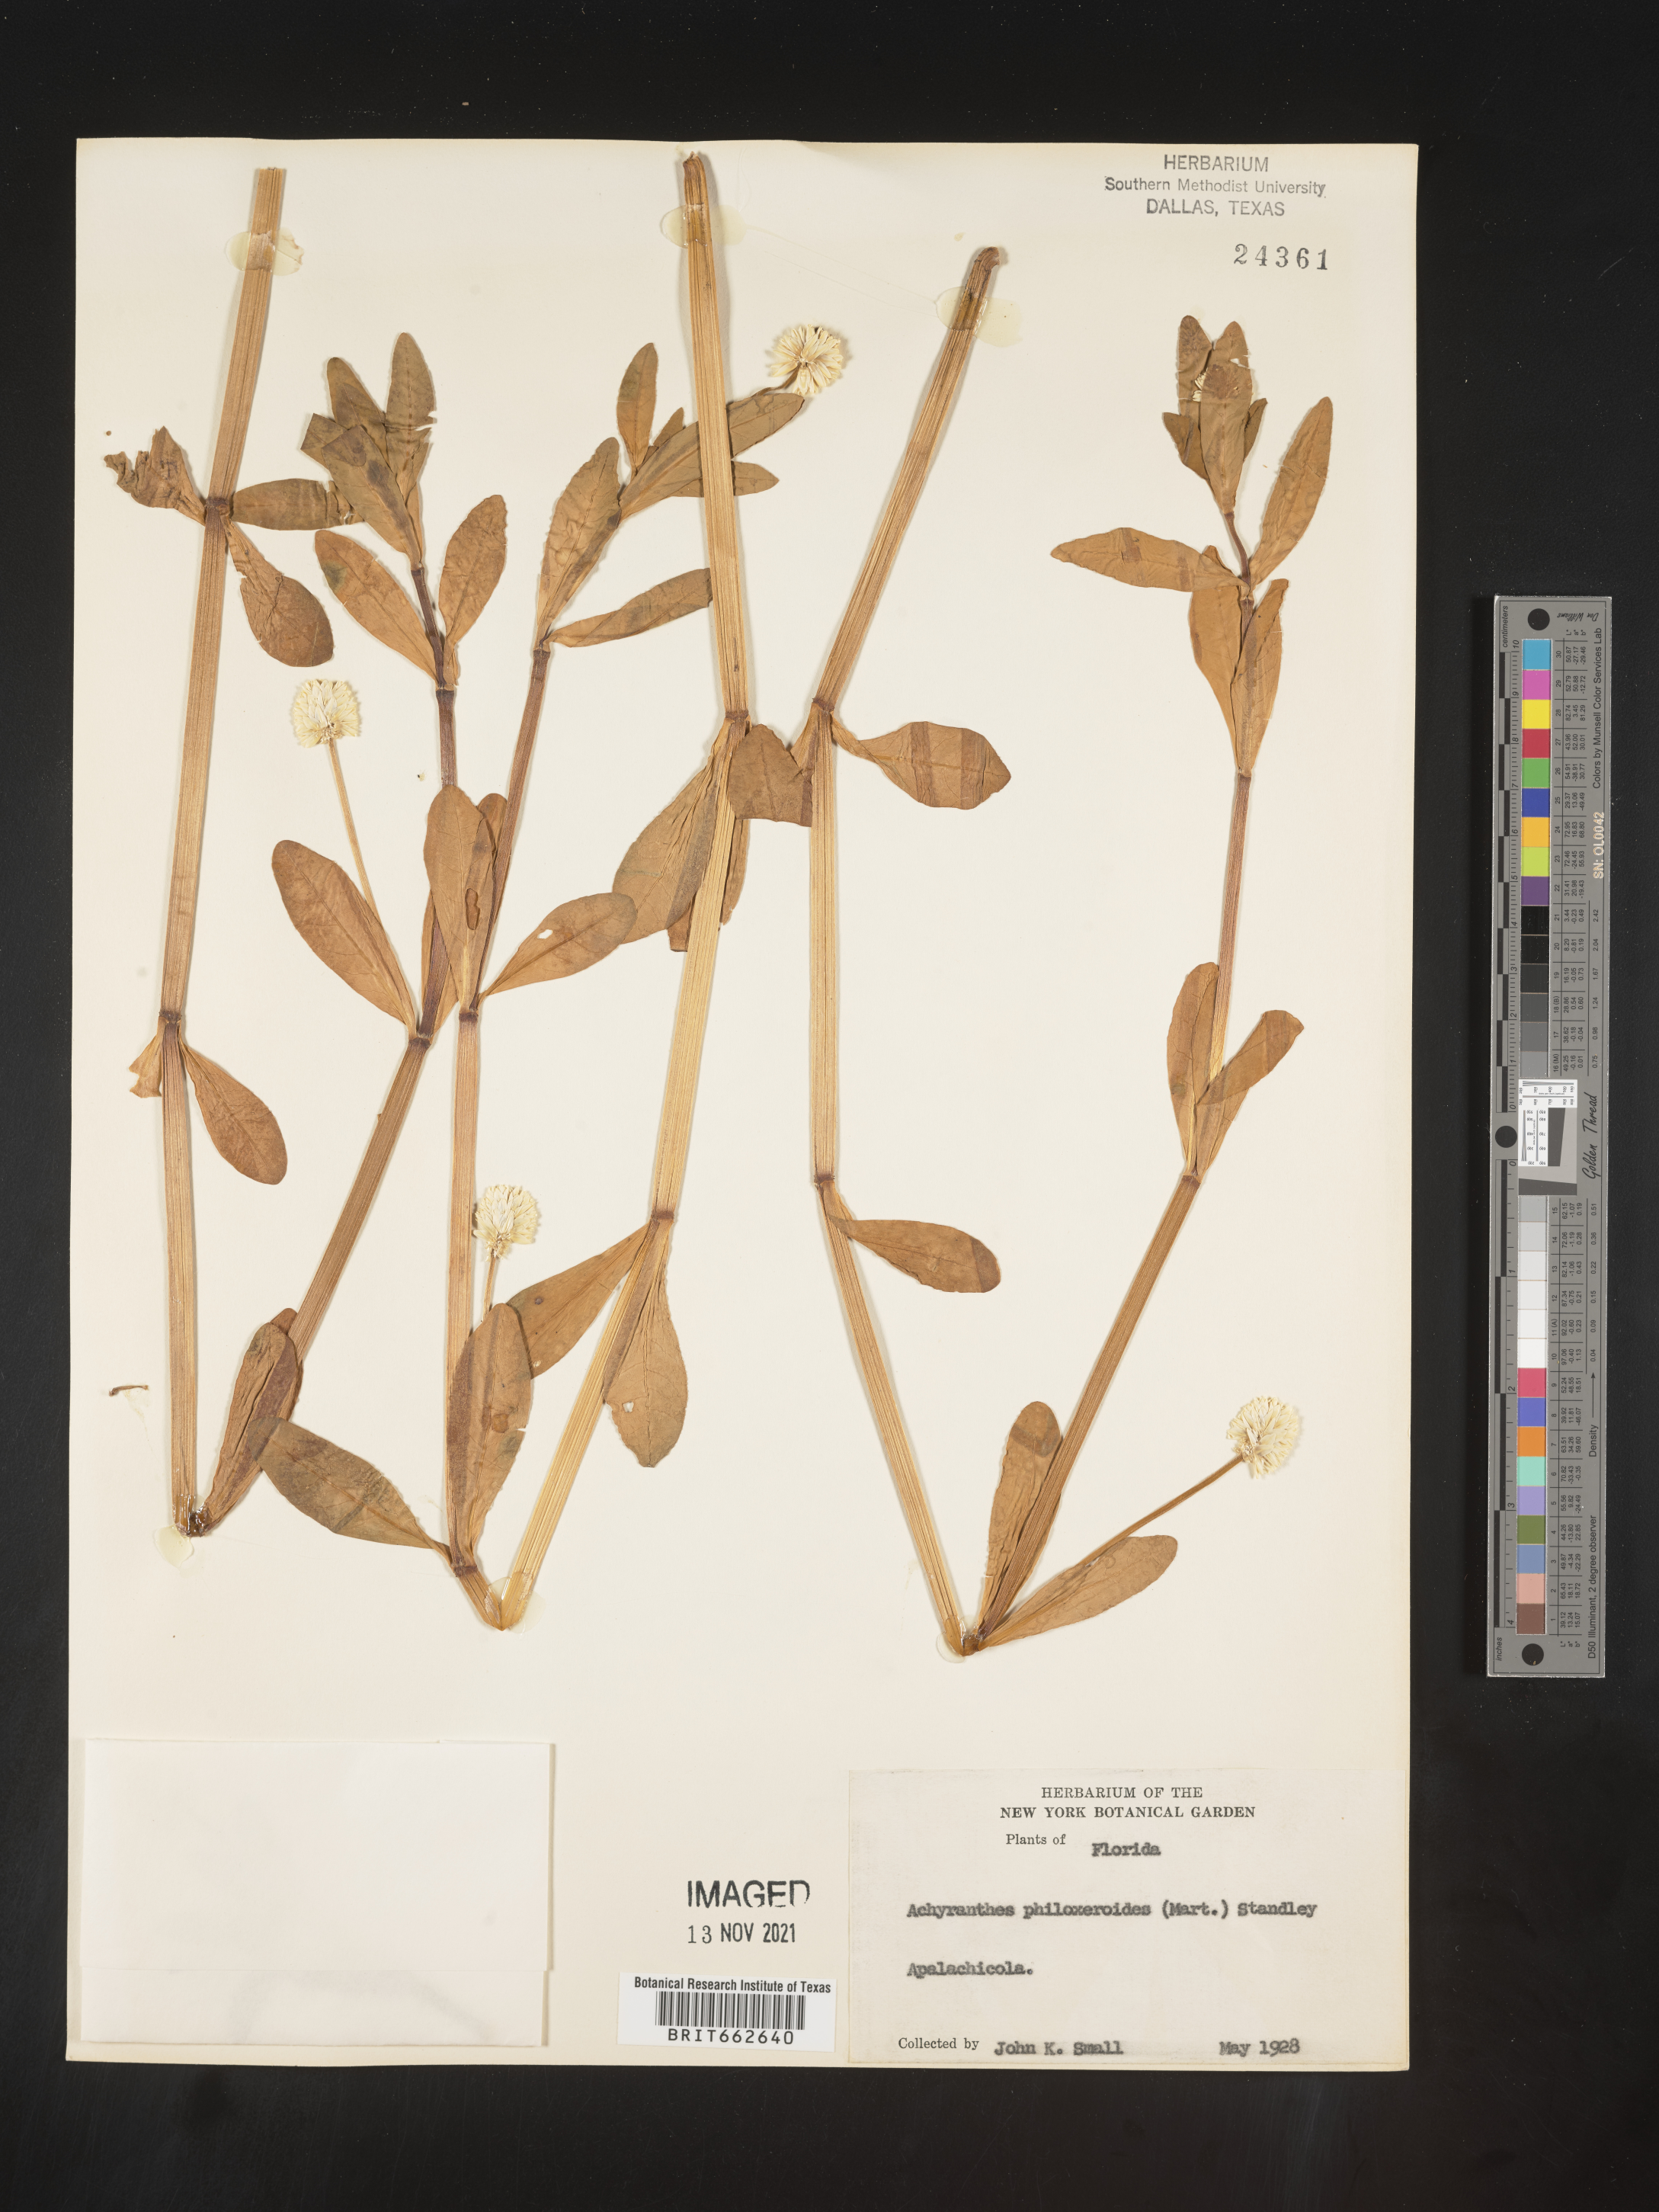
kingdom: Plantae
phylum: Tracheophyta
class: Magnoliopsida
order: Caryophyllales
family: Amaranthaceae
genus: Alternanthera
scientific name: Alternanthera philoxeroides
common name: Alligatorweed
